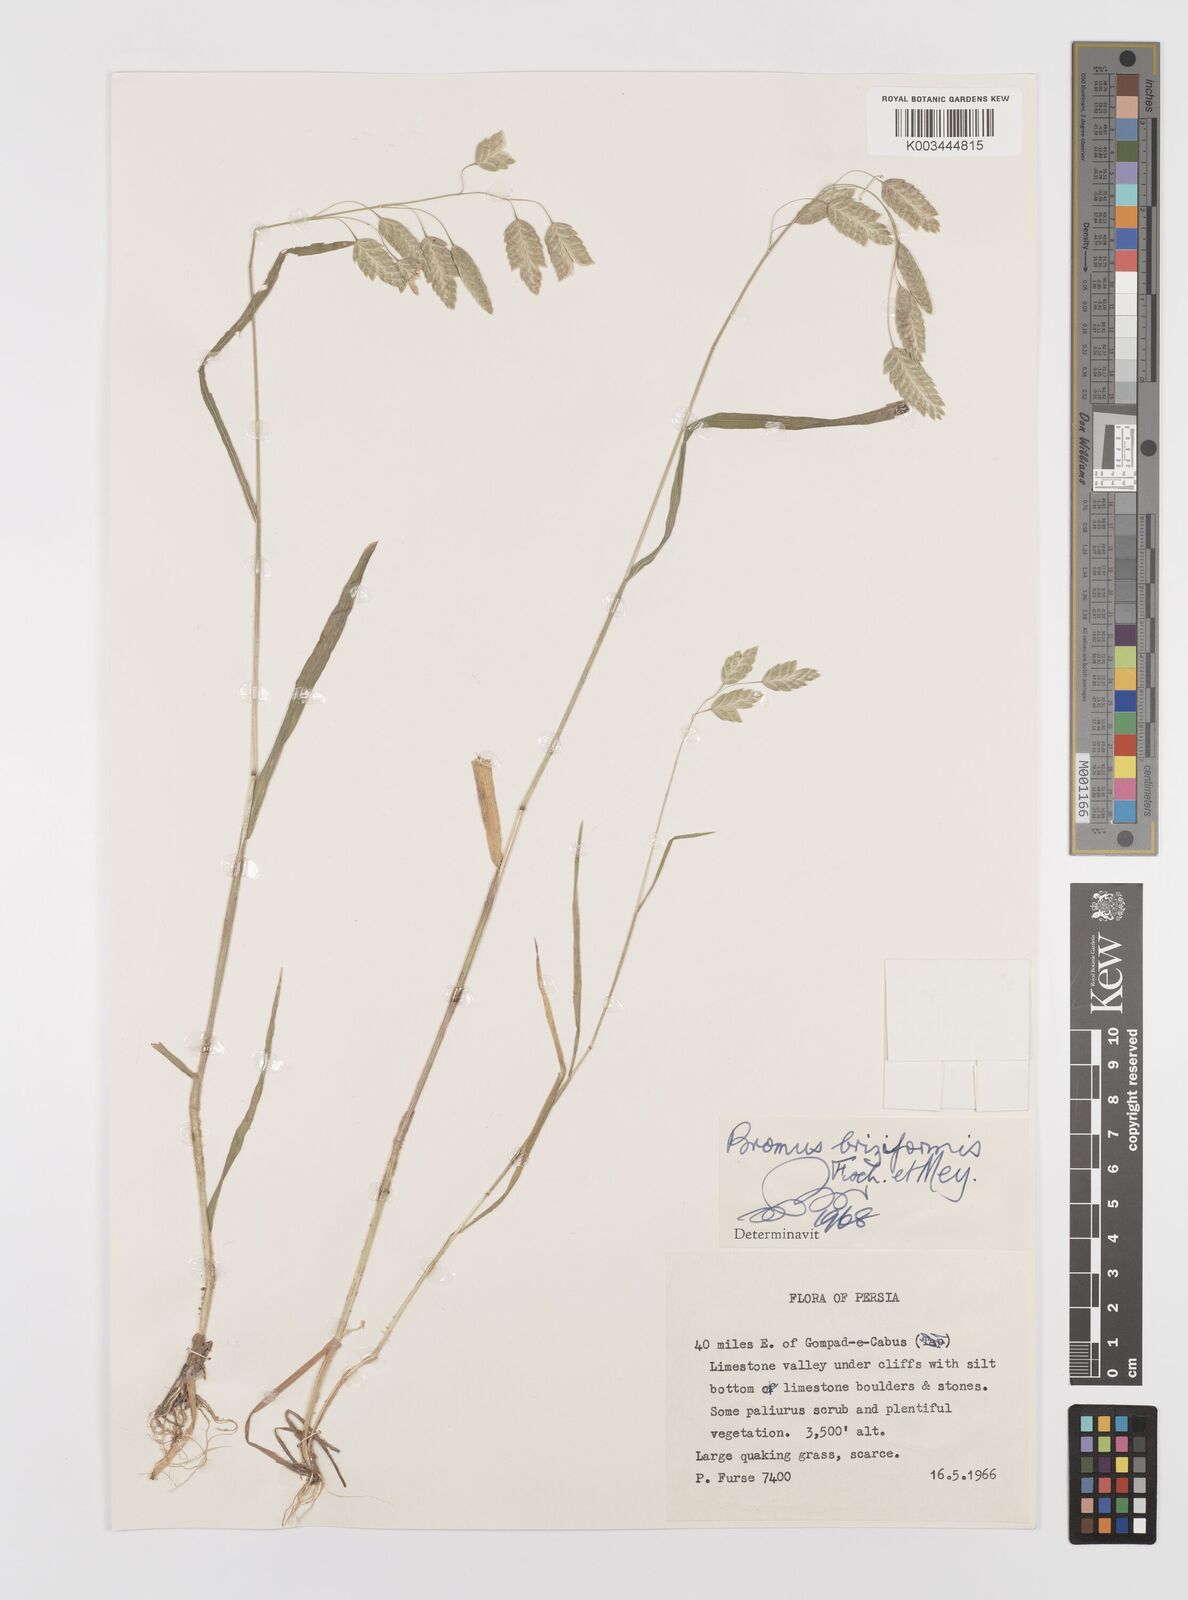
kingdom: Plantae
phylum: Tracheophyta
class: Liliopsida
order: Poales
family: Poaceae
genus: Bromus
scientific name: Bromus briziformis
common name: Rattlesnake brome
